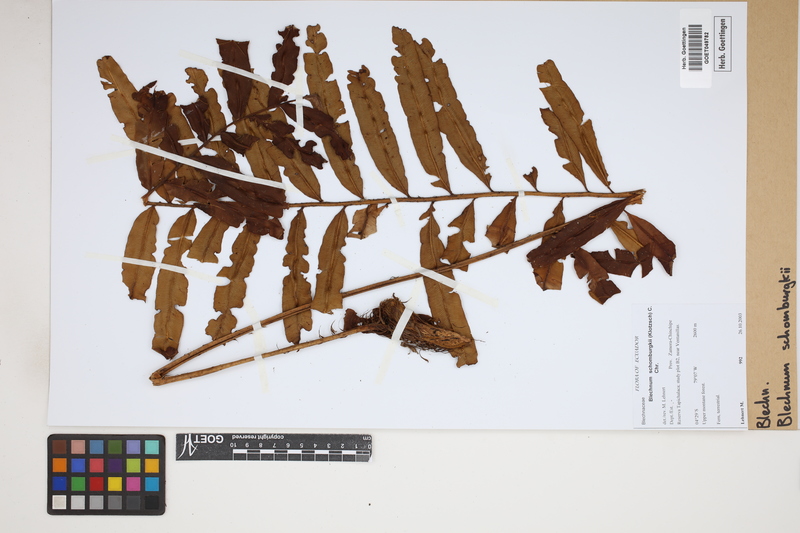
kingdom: Plantae
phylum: Tracheophyta
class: Polypodiopsida
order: Polypodiales
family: Blechnaceae
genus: Lomariocycas
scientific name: Lomariocycas schomburgkii
